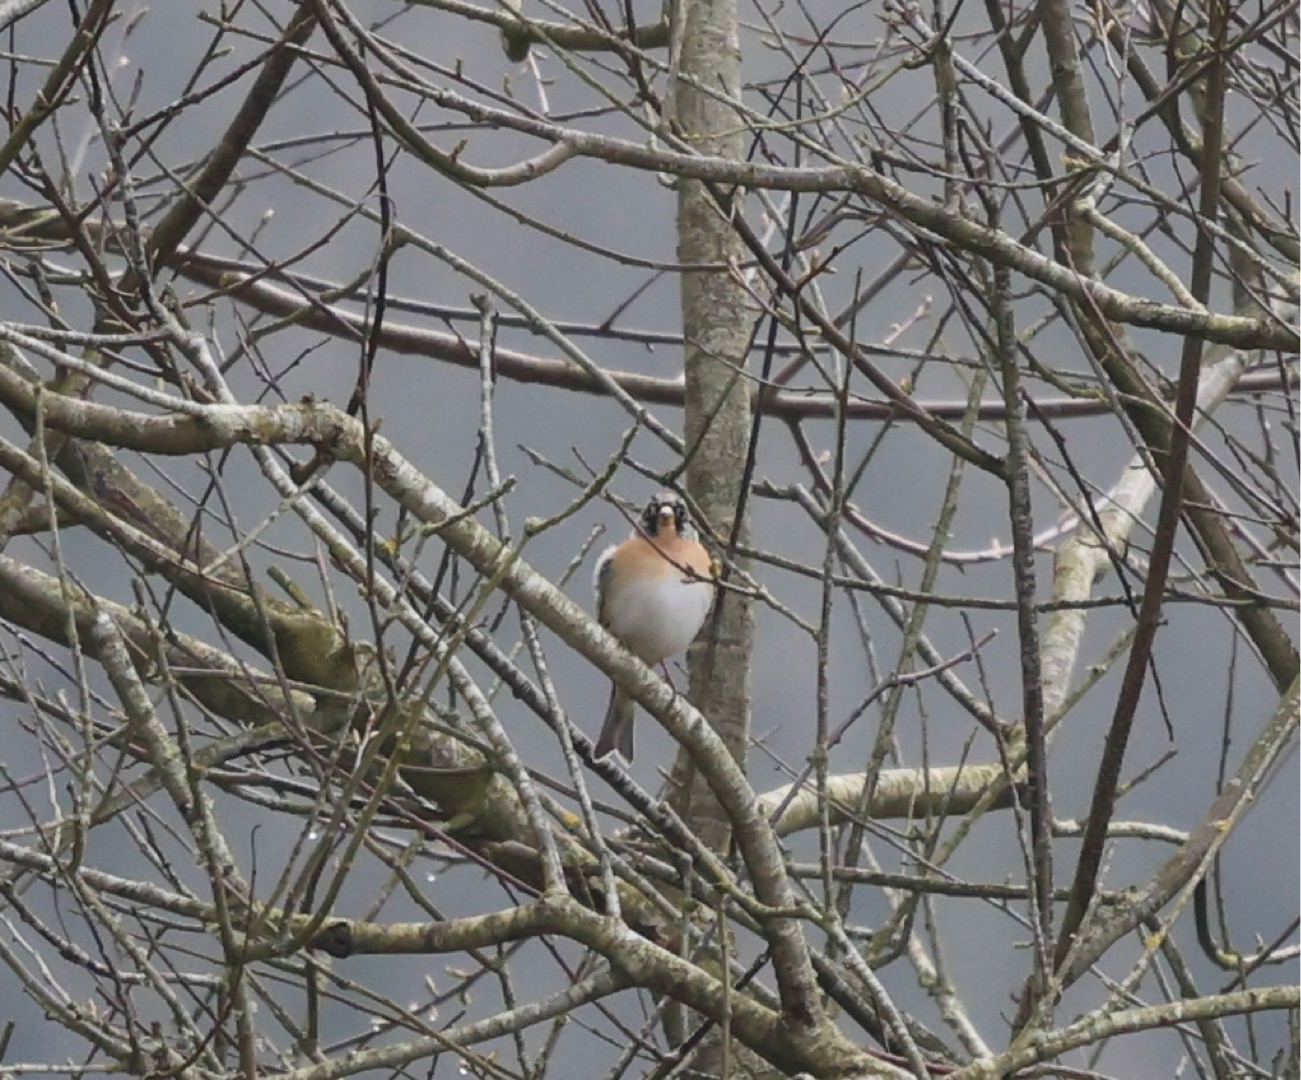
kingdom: Animalia
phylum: Chordata
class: Aves
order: Passeriformes
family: Fringillidae
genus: Fringilla
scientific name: Fringilla montifringilla
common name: Kvækerfinke
